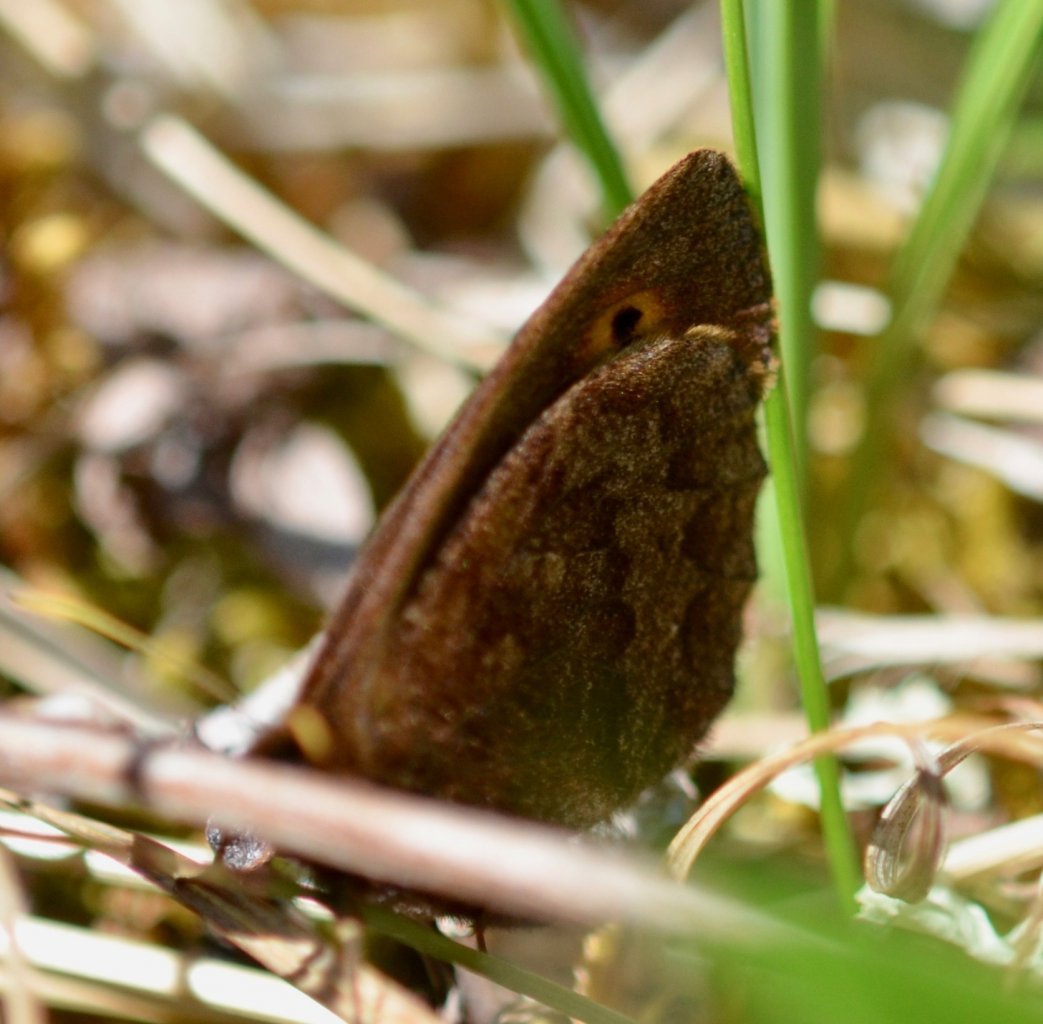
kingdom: Animalia
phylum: Arthropoda
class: Insecta
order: Lepidoptera
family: Nymphalidae
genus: Erebia
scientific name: Erebia rossii
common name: Ross's Alpine
